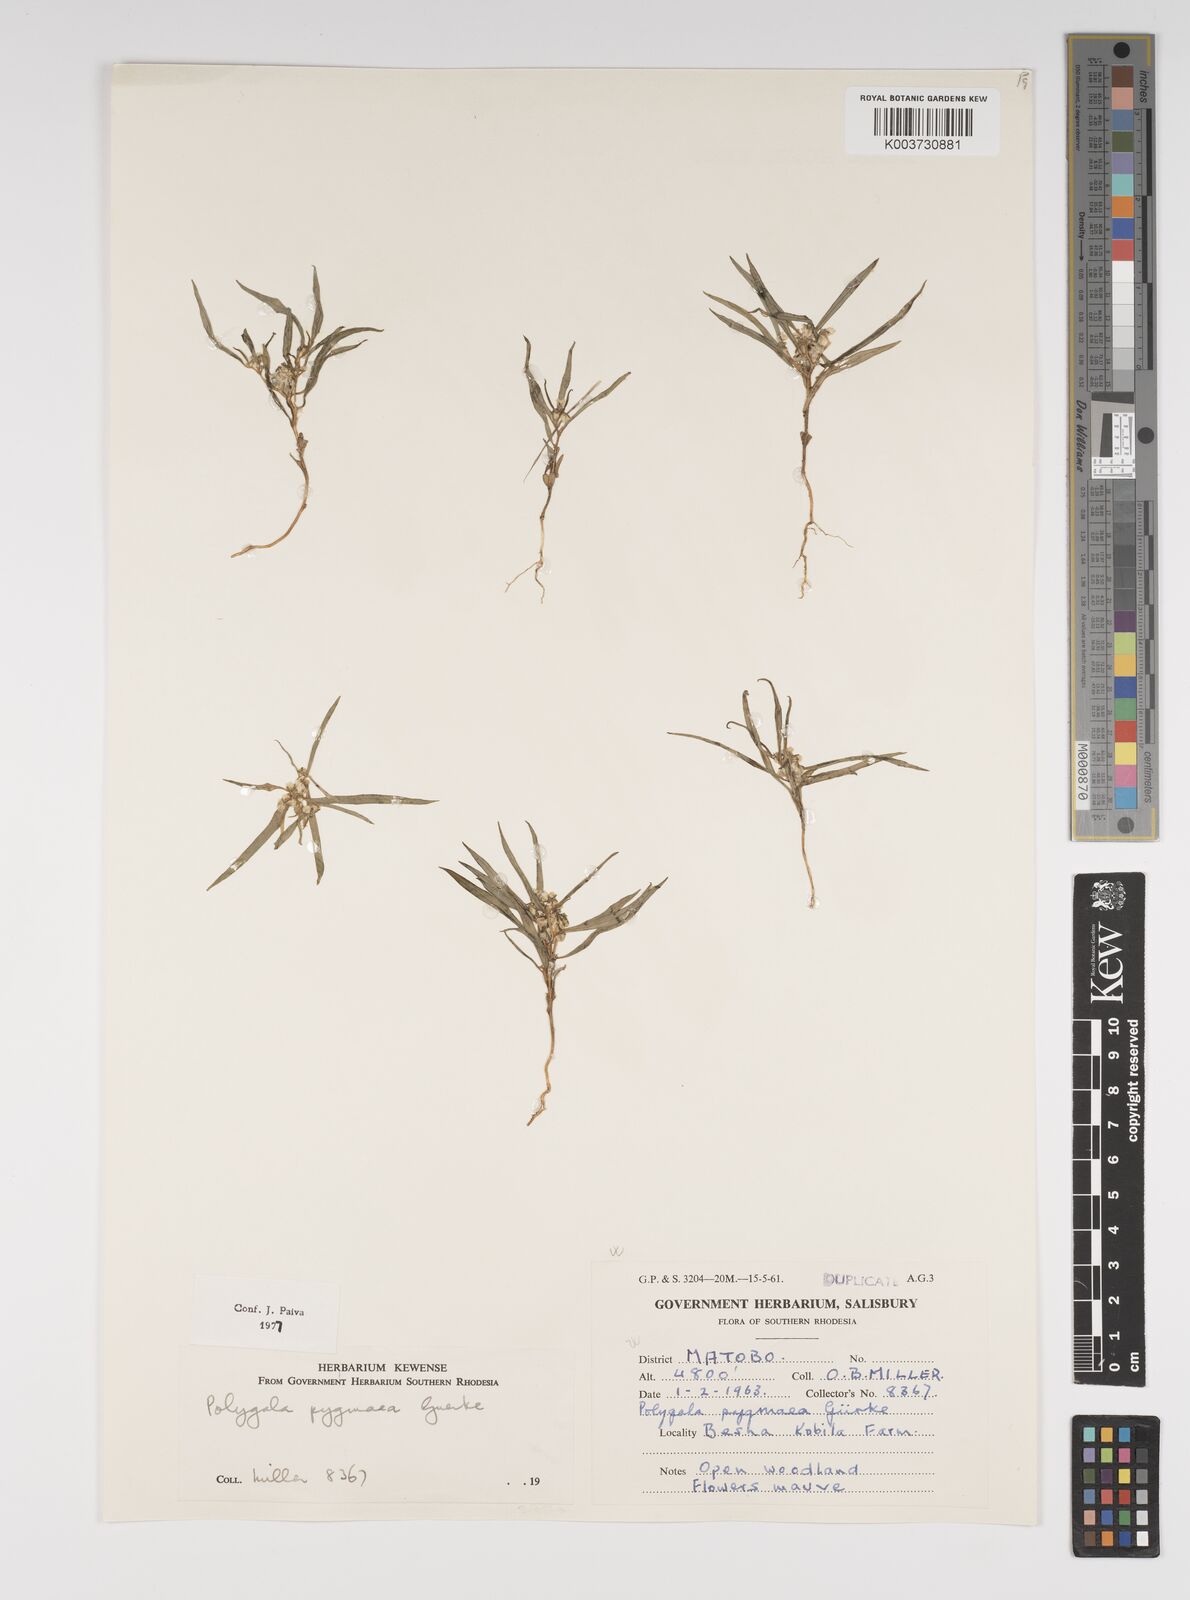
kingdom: Plantae
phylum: Tracheophyta
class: Magnoliopsida
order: Fabales
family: Polygalaceae
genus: Polygala
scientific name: Polygala welwitschii
